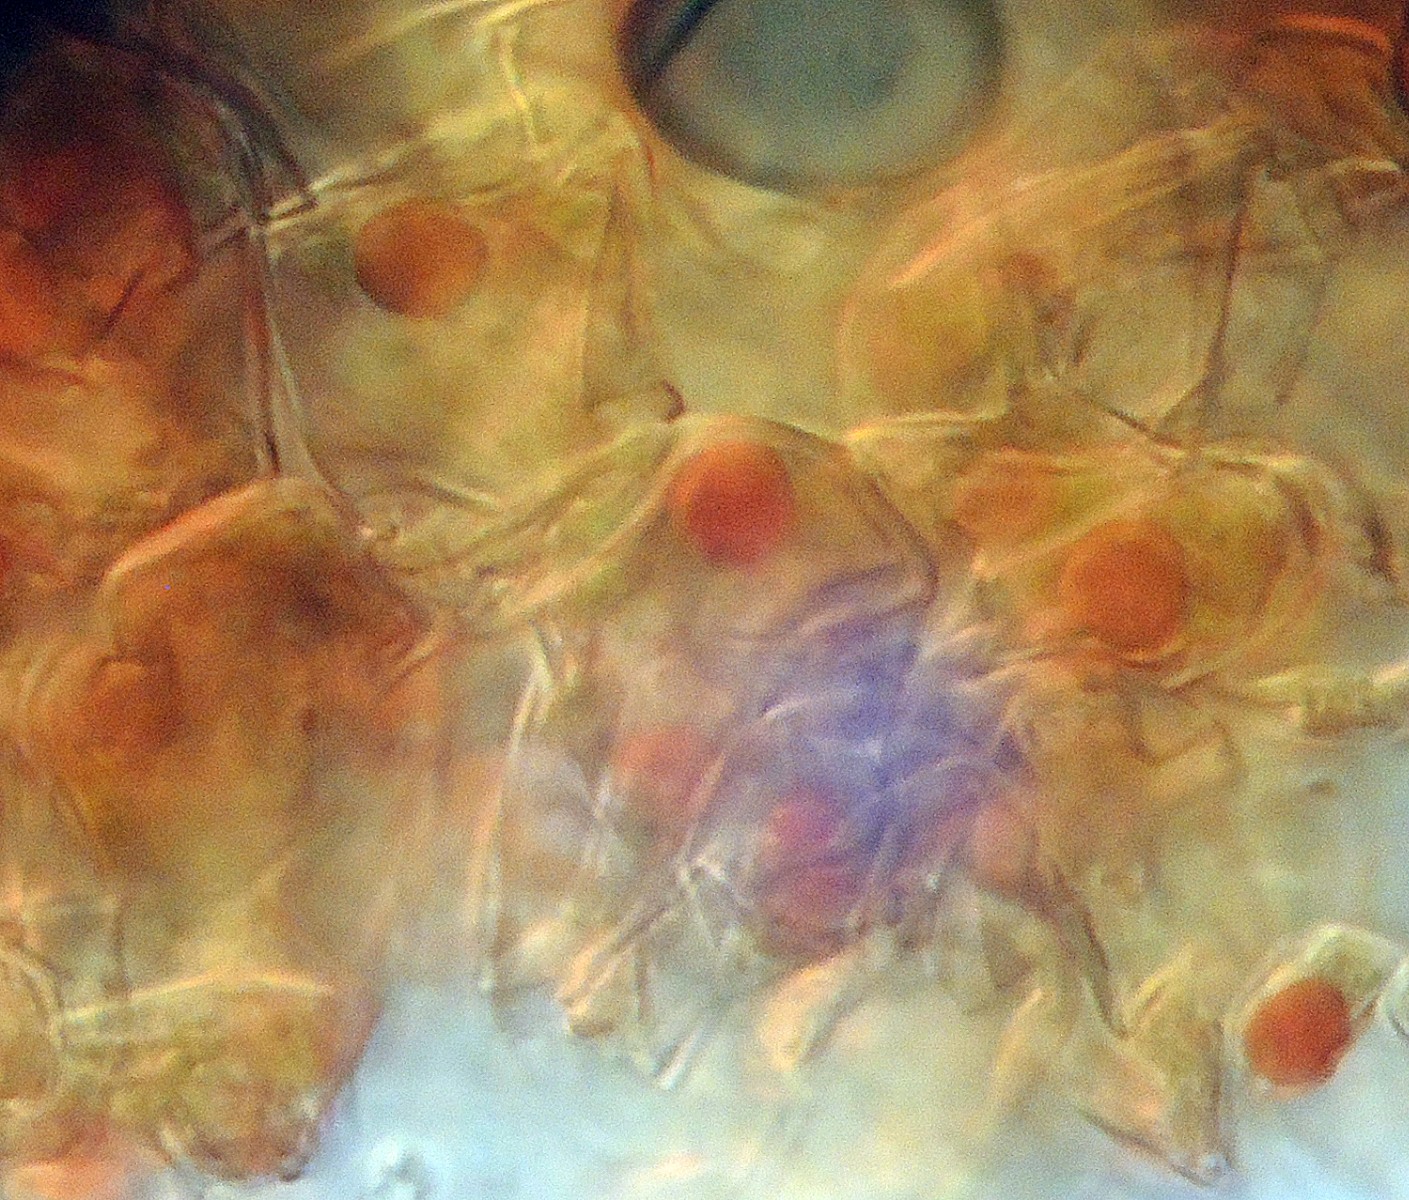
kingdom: Fungi
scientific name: Fungi
